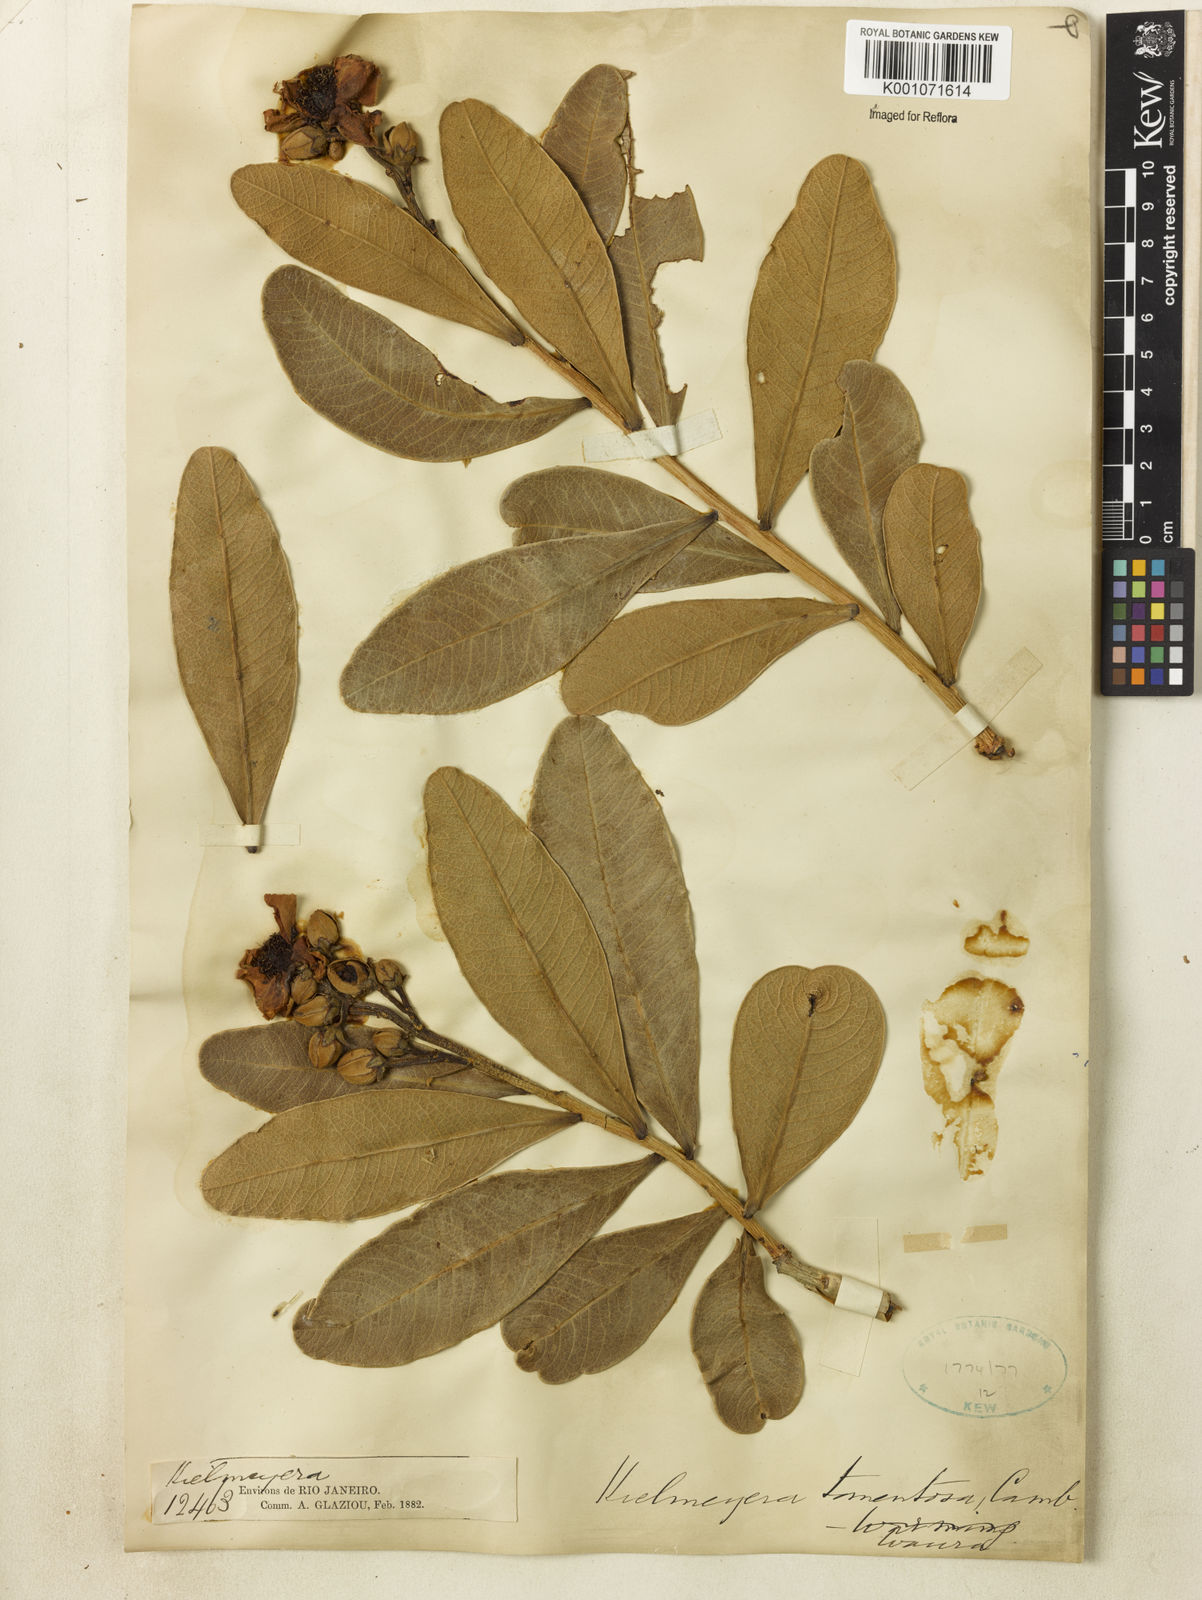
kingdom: Plantae
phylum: Tracheophyta
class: Magnoliopsida
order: Malpighiales
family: Calophyllaceae
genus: Kielmeyera
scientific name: Kielmeyera tomentosa
